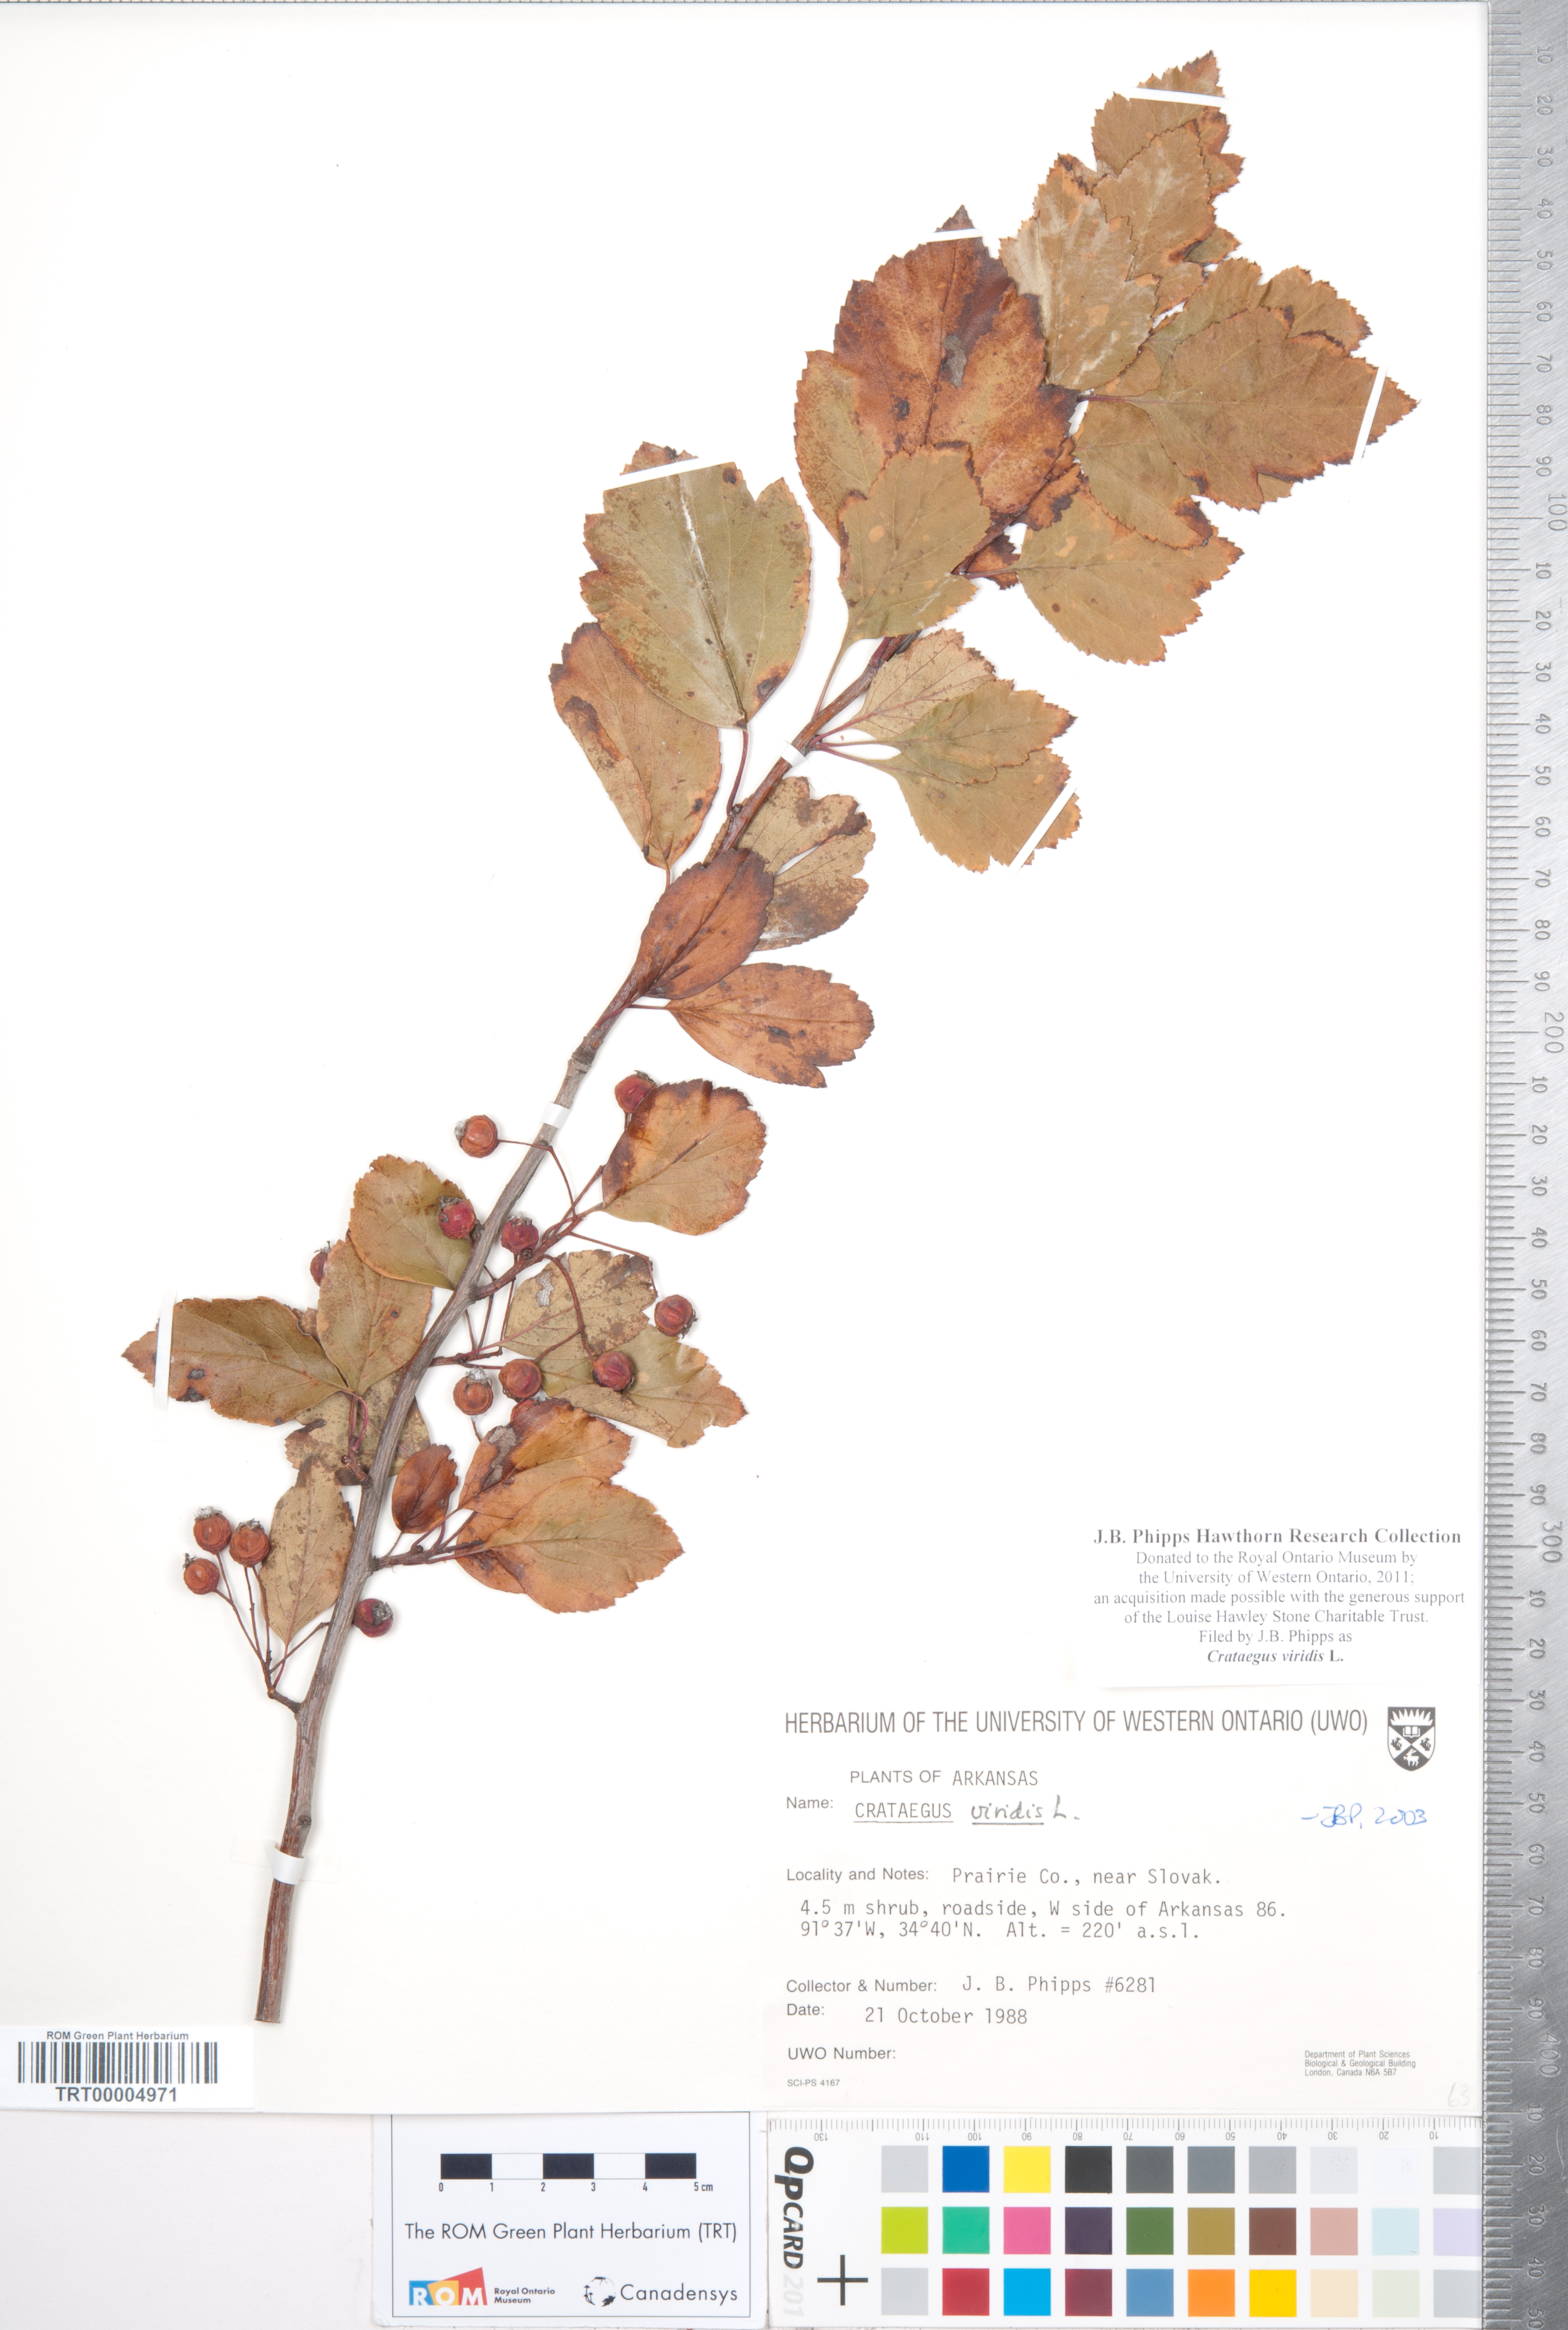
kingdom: Plantae
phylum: Tracheophyta
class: Magnoliopsida
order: Rosales
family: Rosaceae
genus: Crataegus
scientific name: Crataegus viridis
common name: Southernthorn
